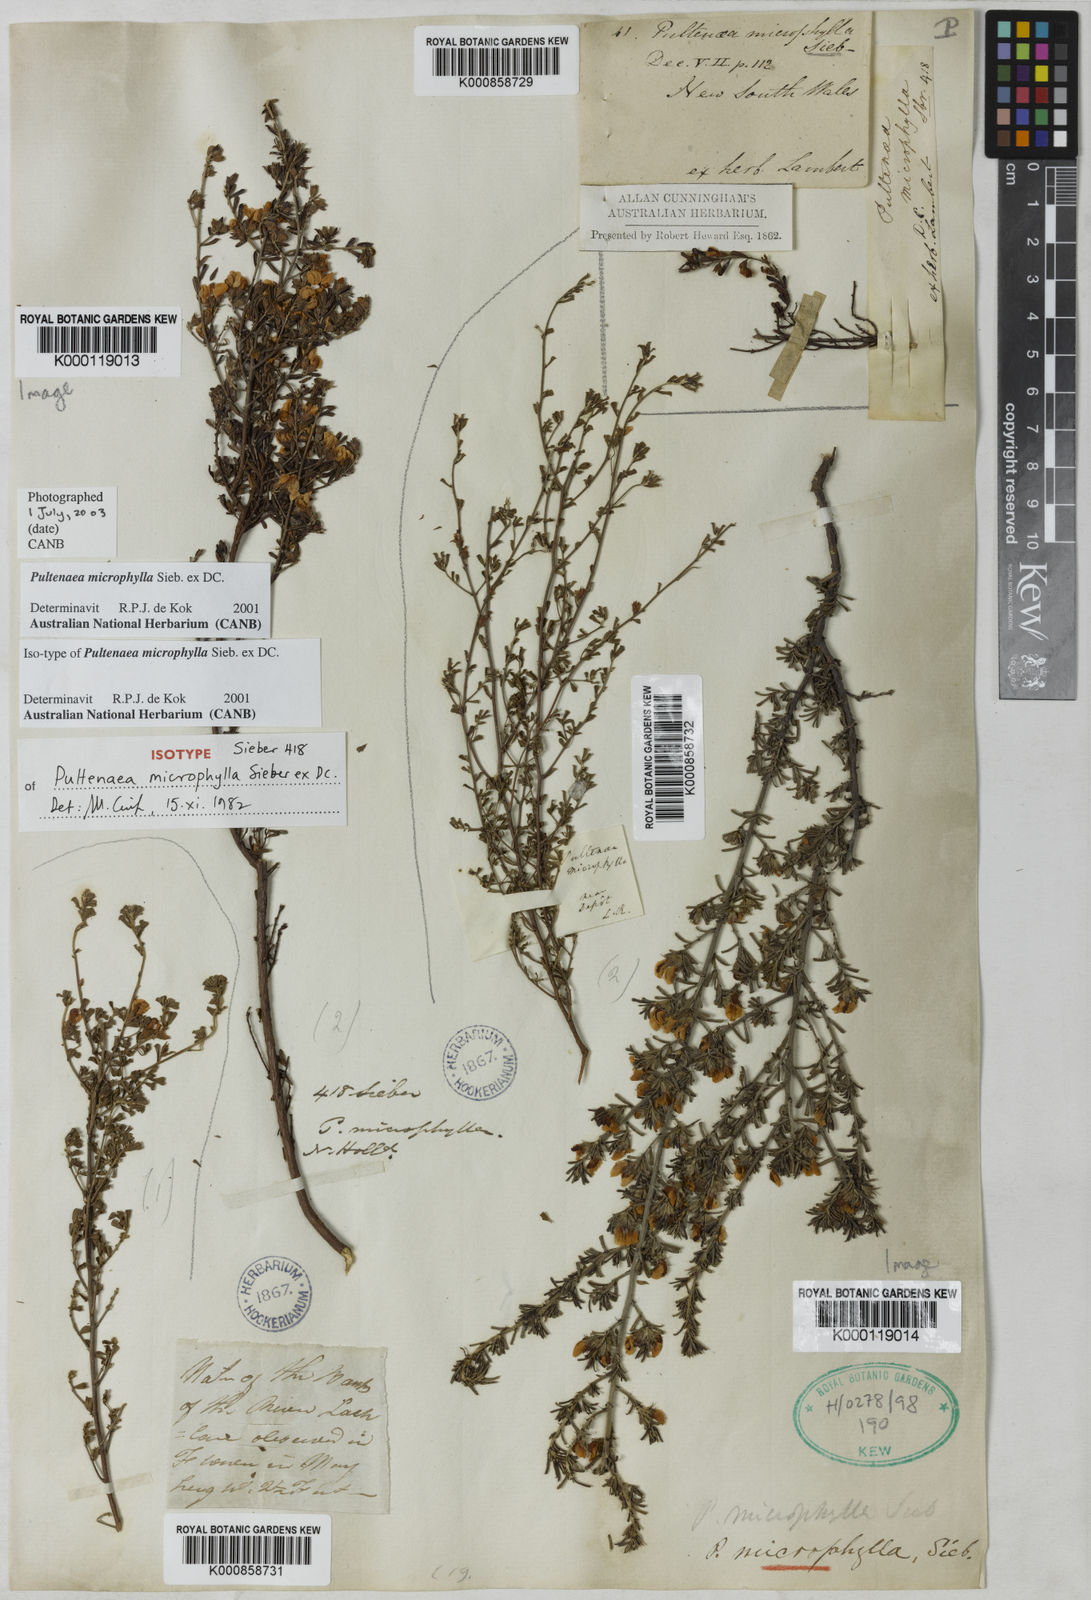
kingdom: Plantae
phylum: Tracheophyta
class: Magnoliopsida
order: Fabales
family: Fabaceae
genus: Pultenaea
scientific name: Pultenaea microphylla
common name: Spreading bush-pea
